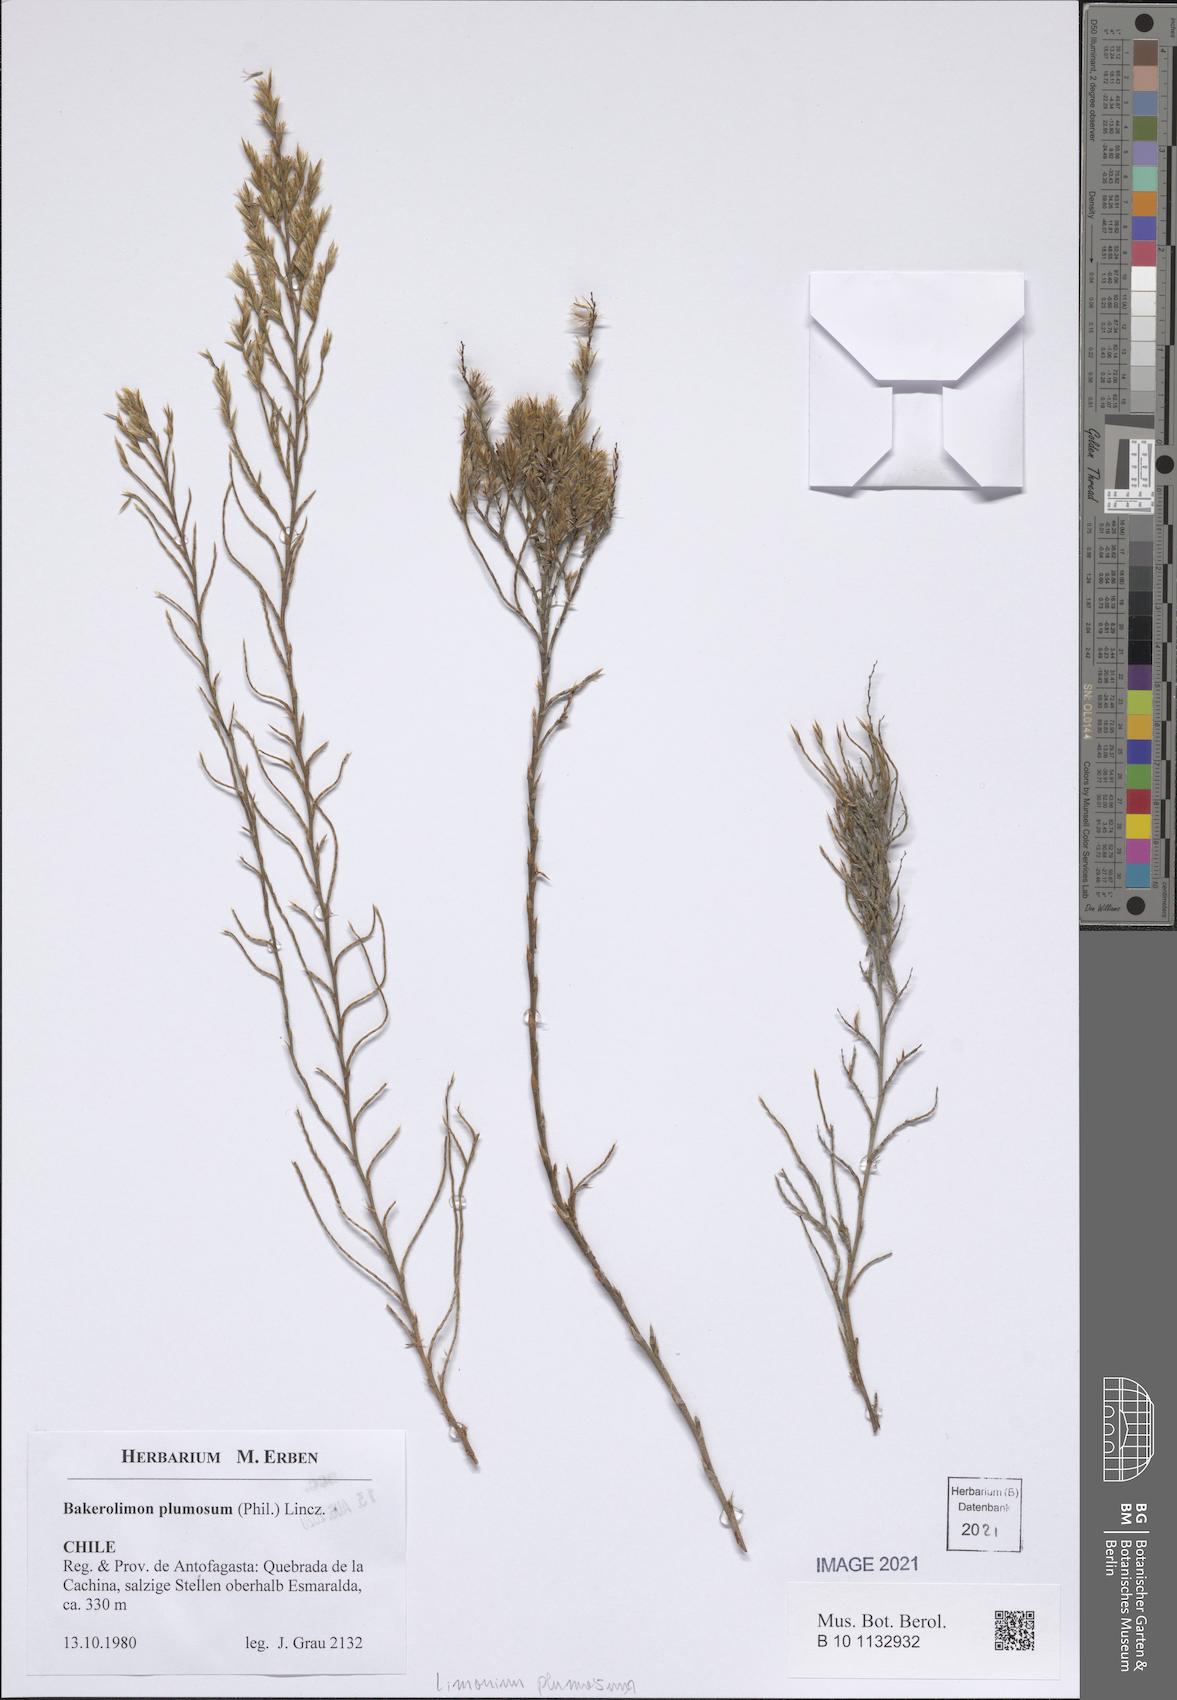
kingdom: Plantae
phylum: Tracheophyta
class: Magnoliopsida
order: Caryophyllales
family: Plumbaginaceae
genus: Bakerolimon
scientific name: Bakerolimon plumosum
